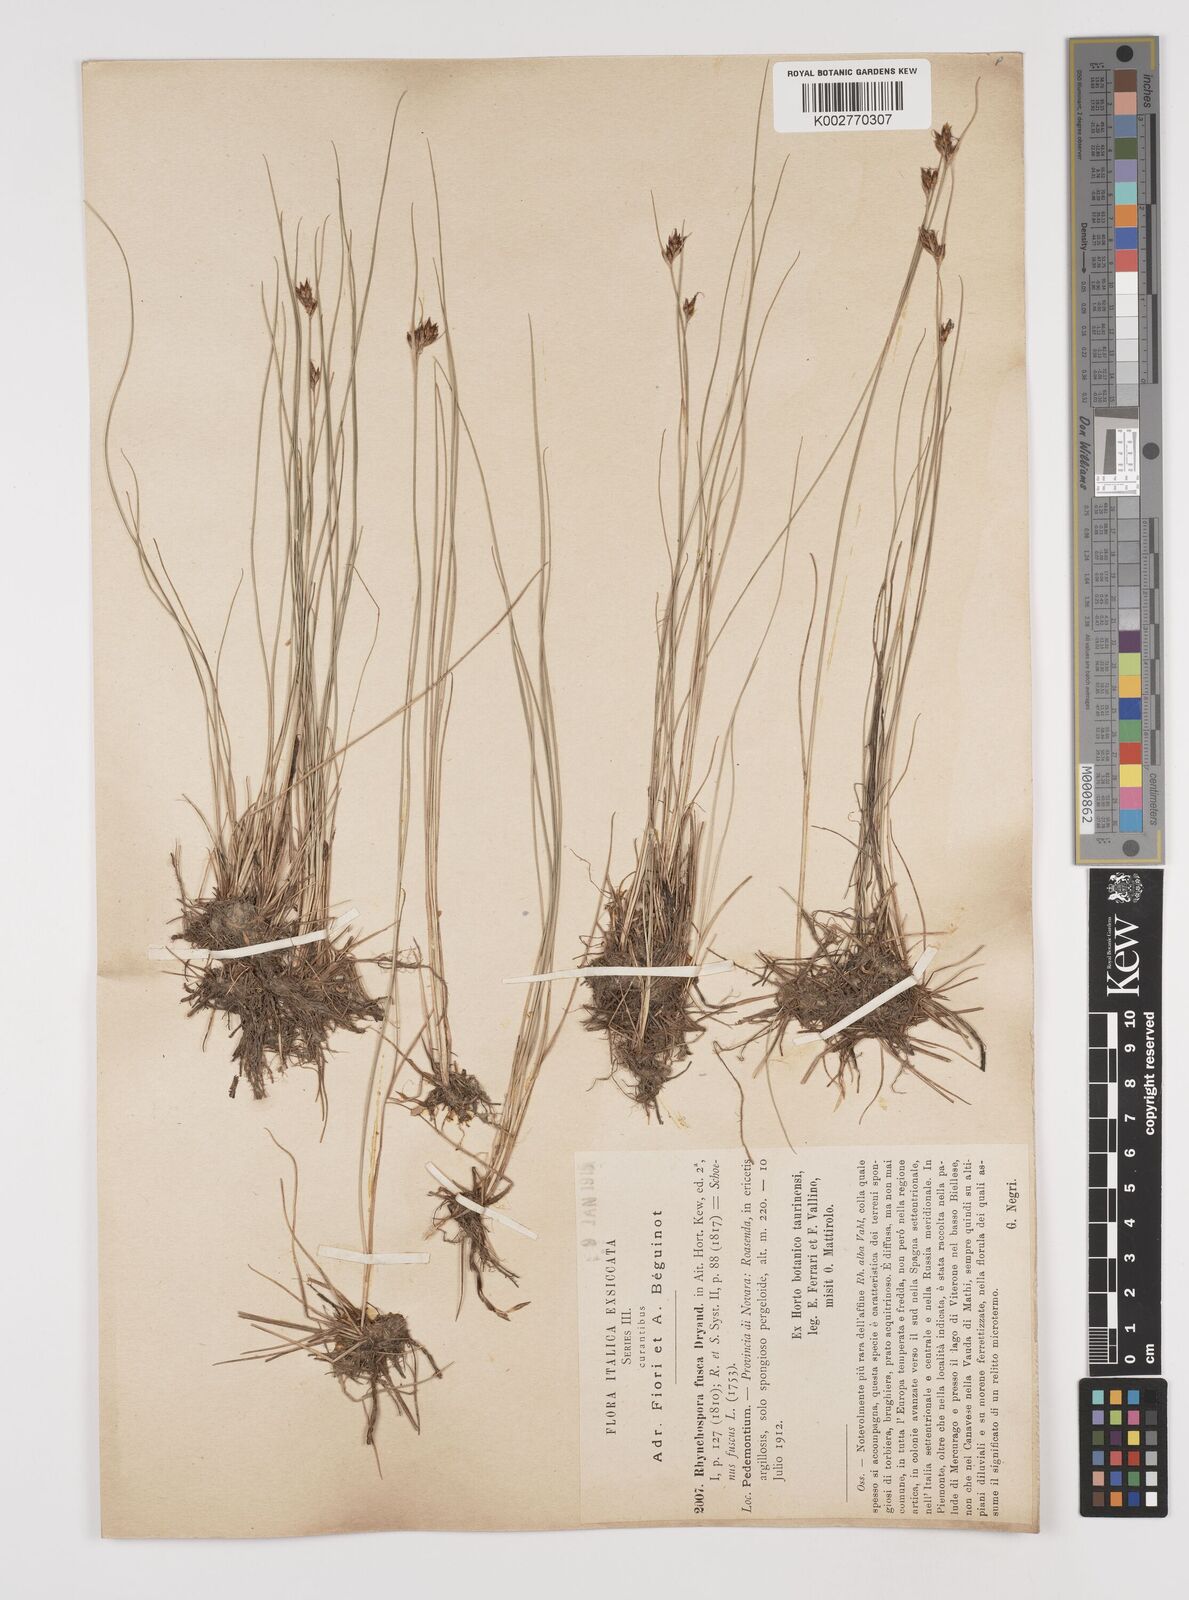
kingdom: Plantae
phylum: Tracheophyta
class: Liliopsida
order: Poales
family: Cyperaceae
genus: Rhynchospora
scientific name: Rhynchospora fusca
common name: Brown beak-sedge
